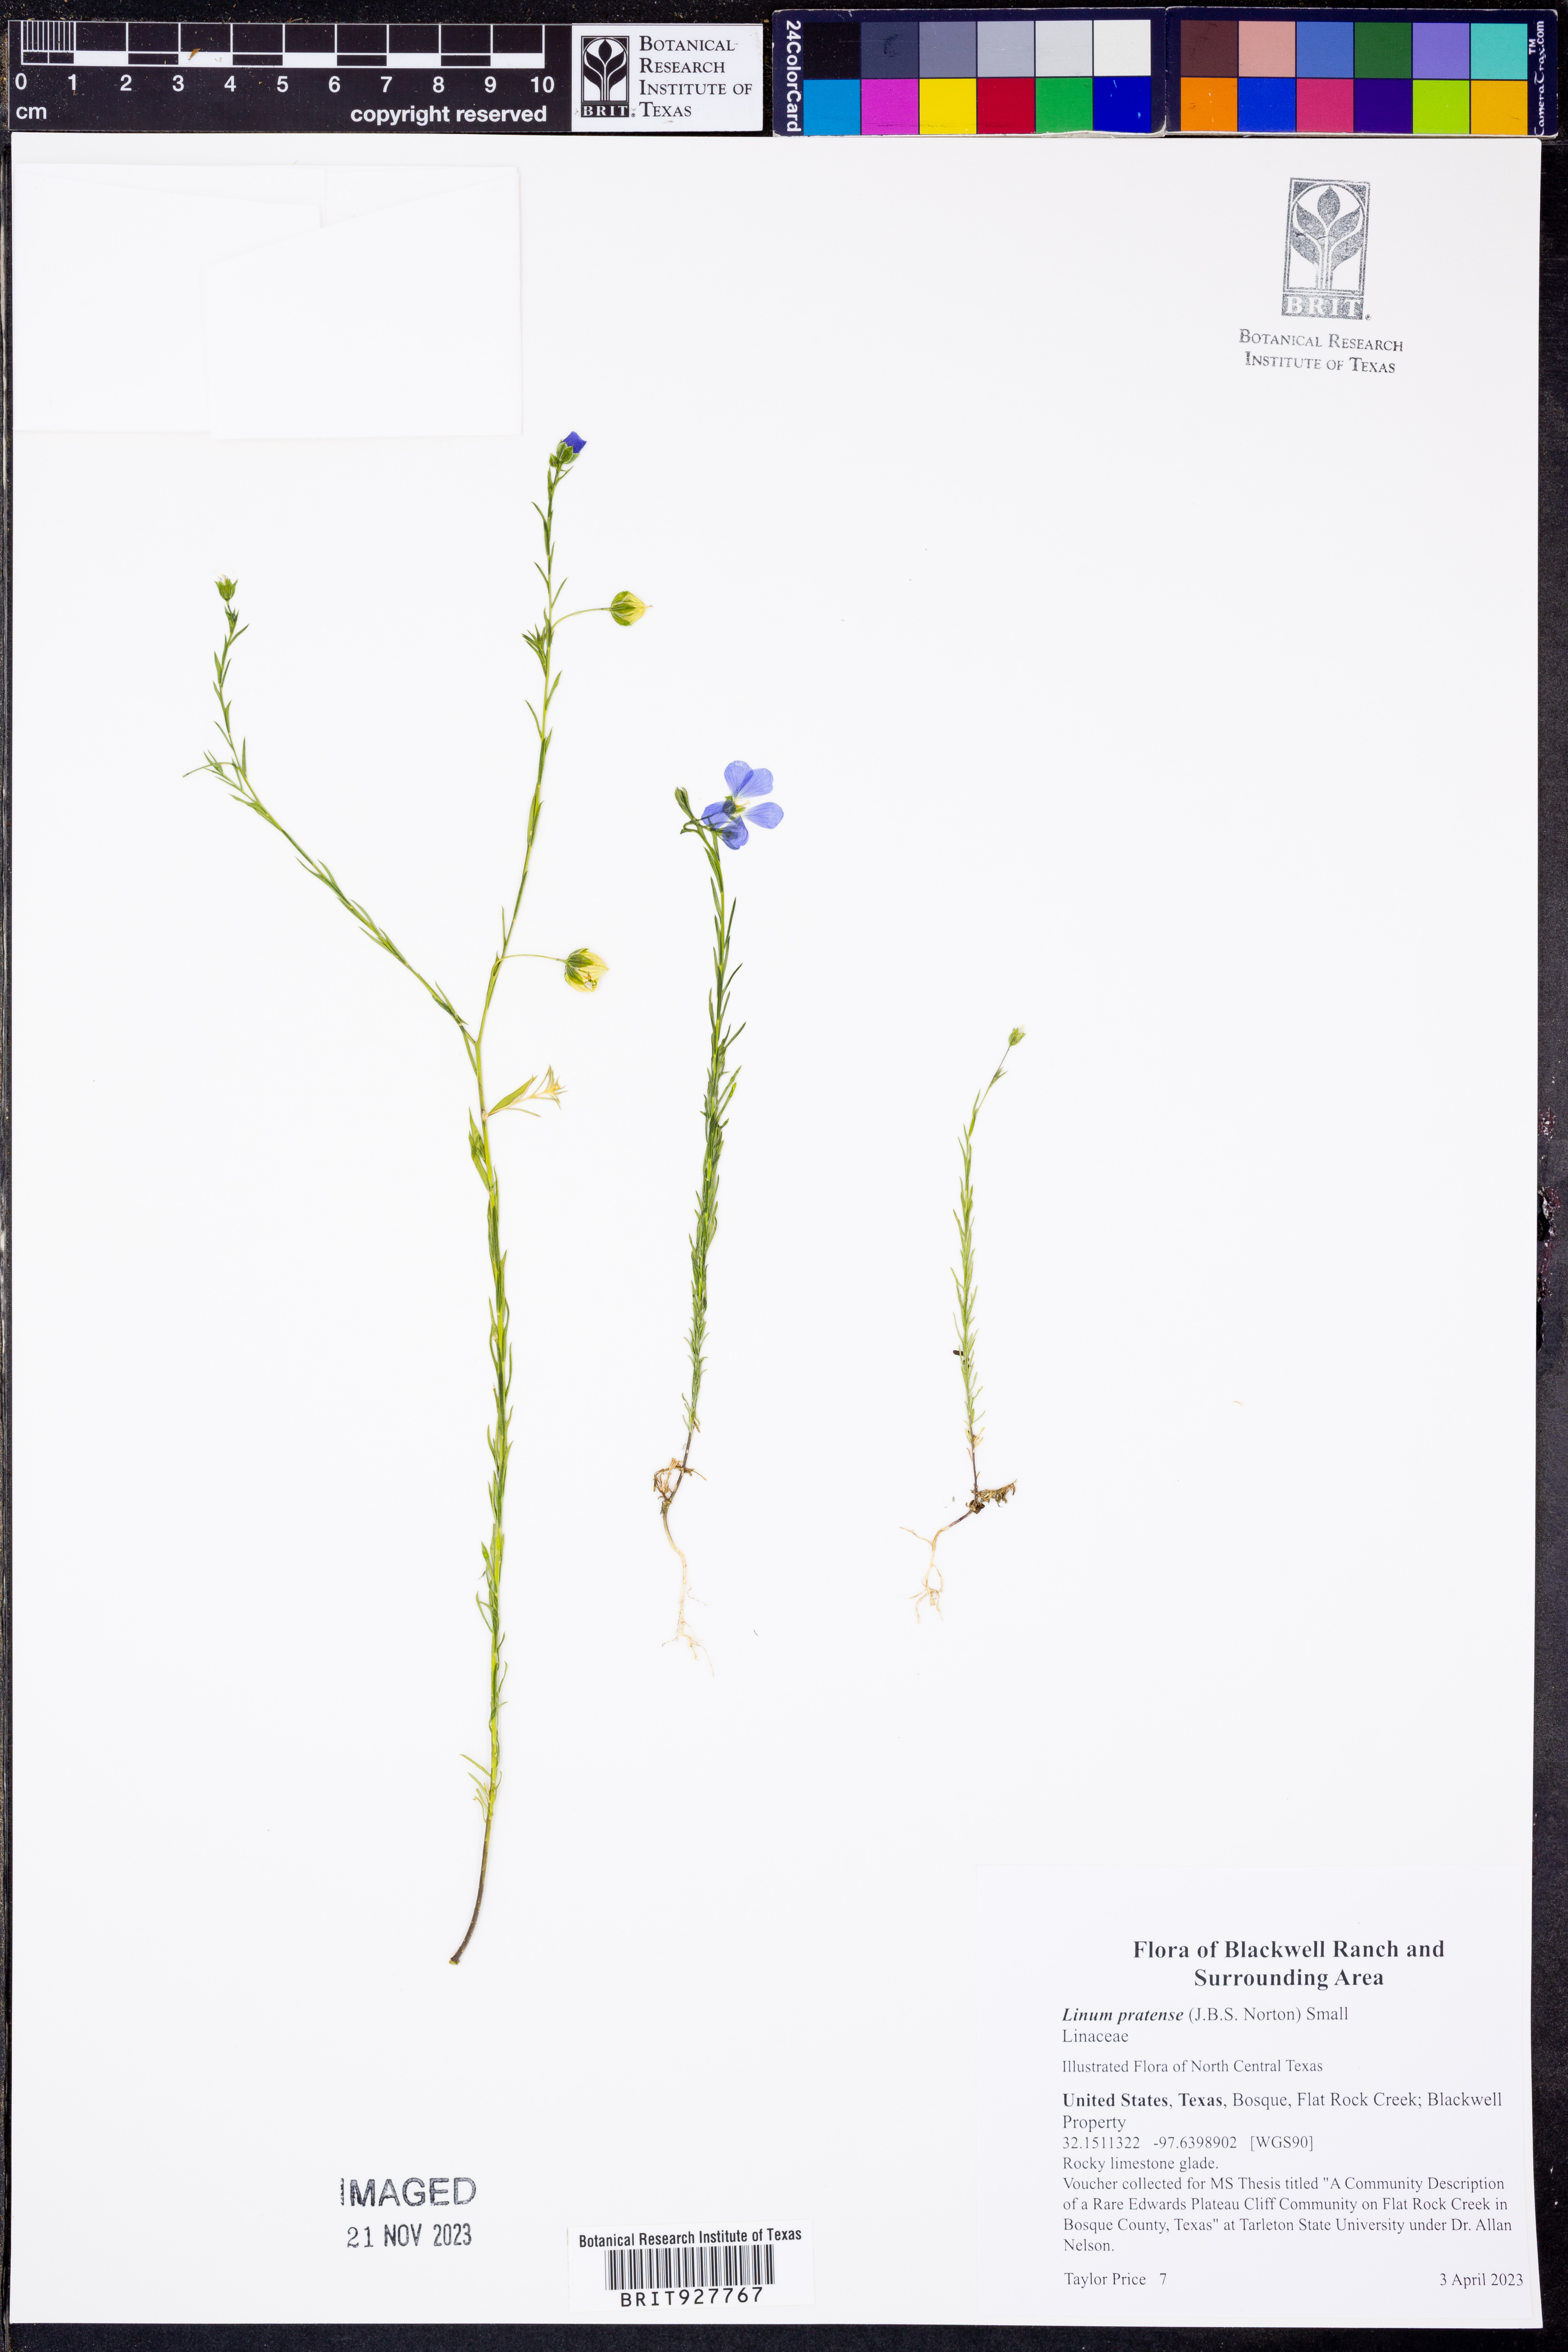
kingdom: Plantae
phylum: Tracheophyta
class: Magnoliopsida
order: Malpighiales
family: Linaceae
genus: Linum
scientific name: Linum pratense
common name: Norton's flax
